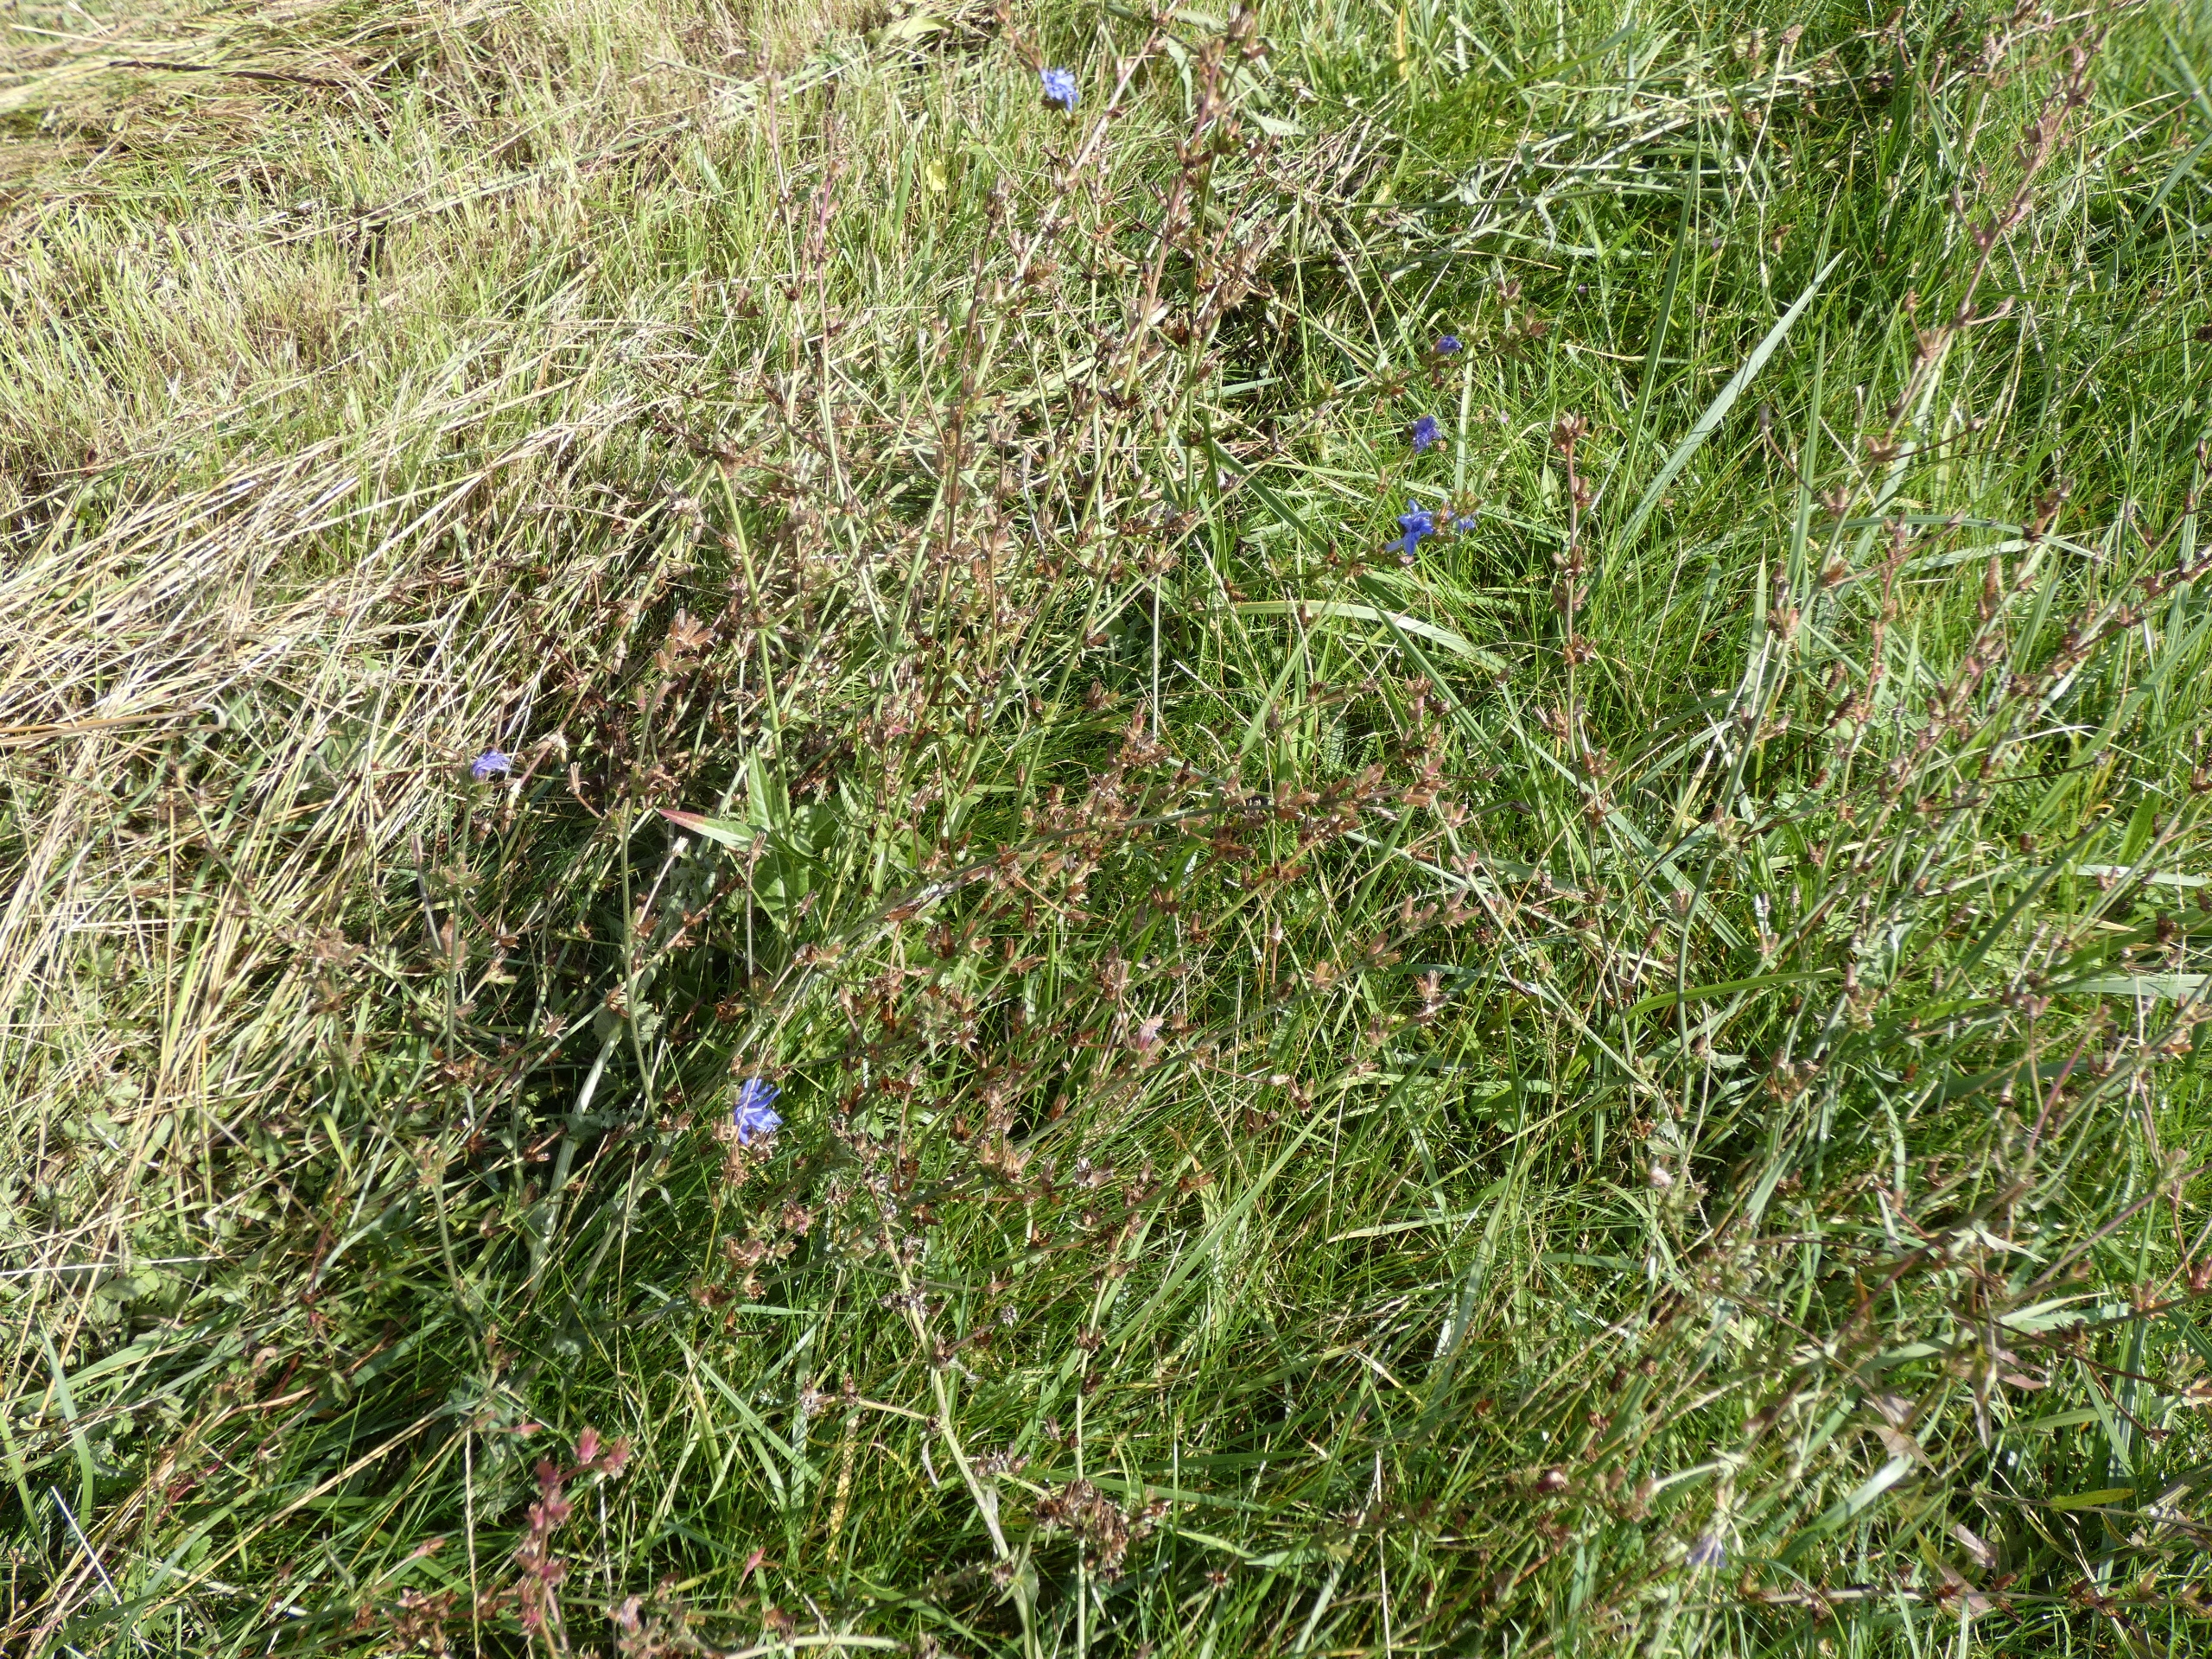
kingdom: Plantae
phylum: Tracheophyta
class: Magnoliopsida
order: Asterales
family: Asteraceae
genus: Cichorium
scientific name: Cichorium intybus
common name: Cikorie
